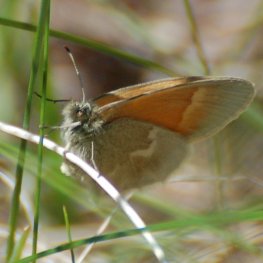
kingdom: Animalia
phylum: Arthropoda
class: Insecta
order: Lepidoptera
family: Nymphalidae
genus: Coenonympha
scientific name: Coenonympha tullia
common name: Large Heath
